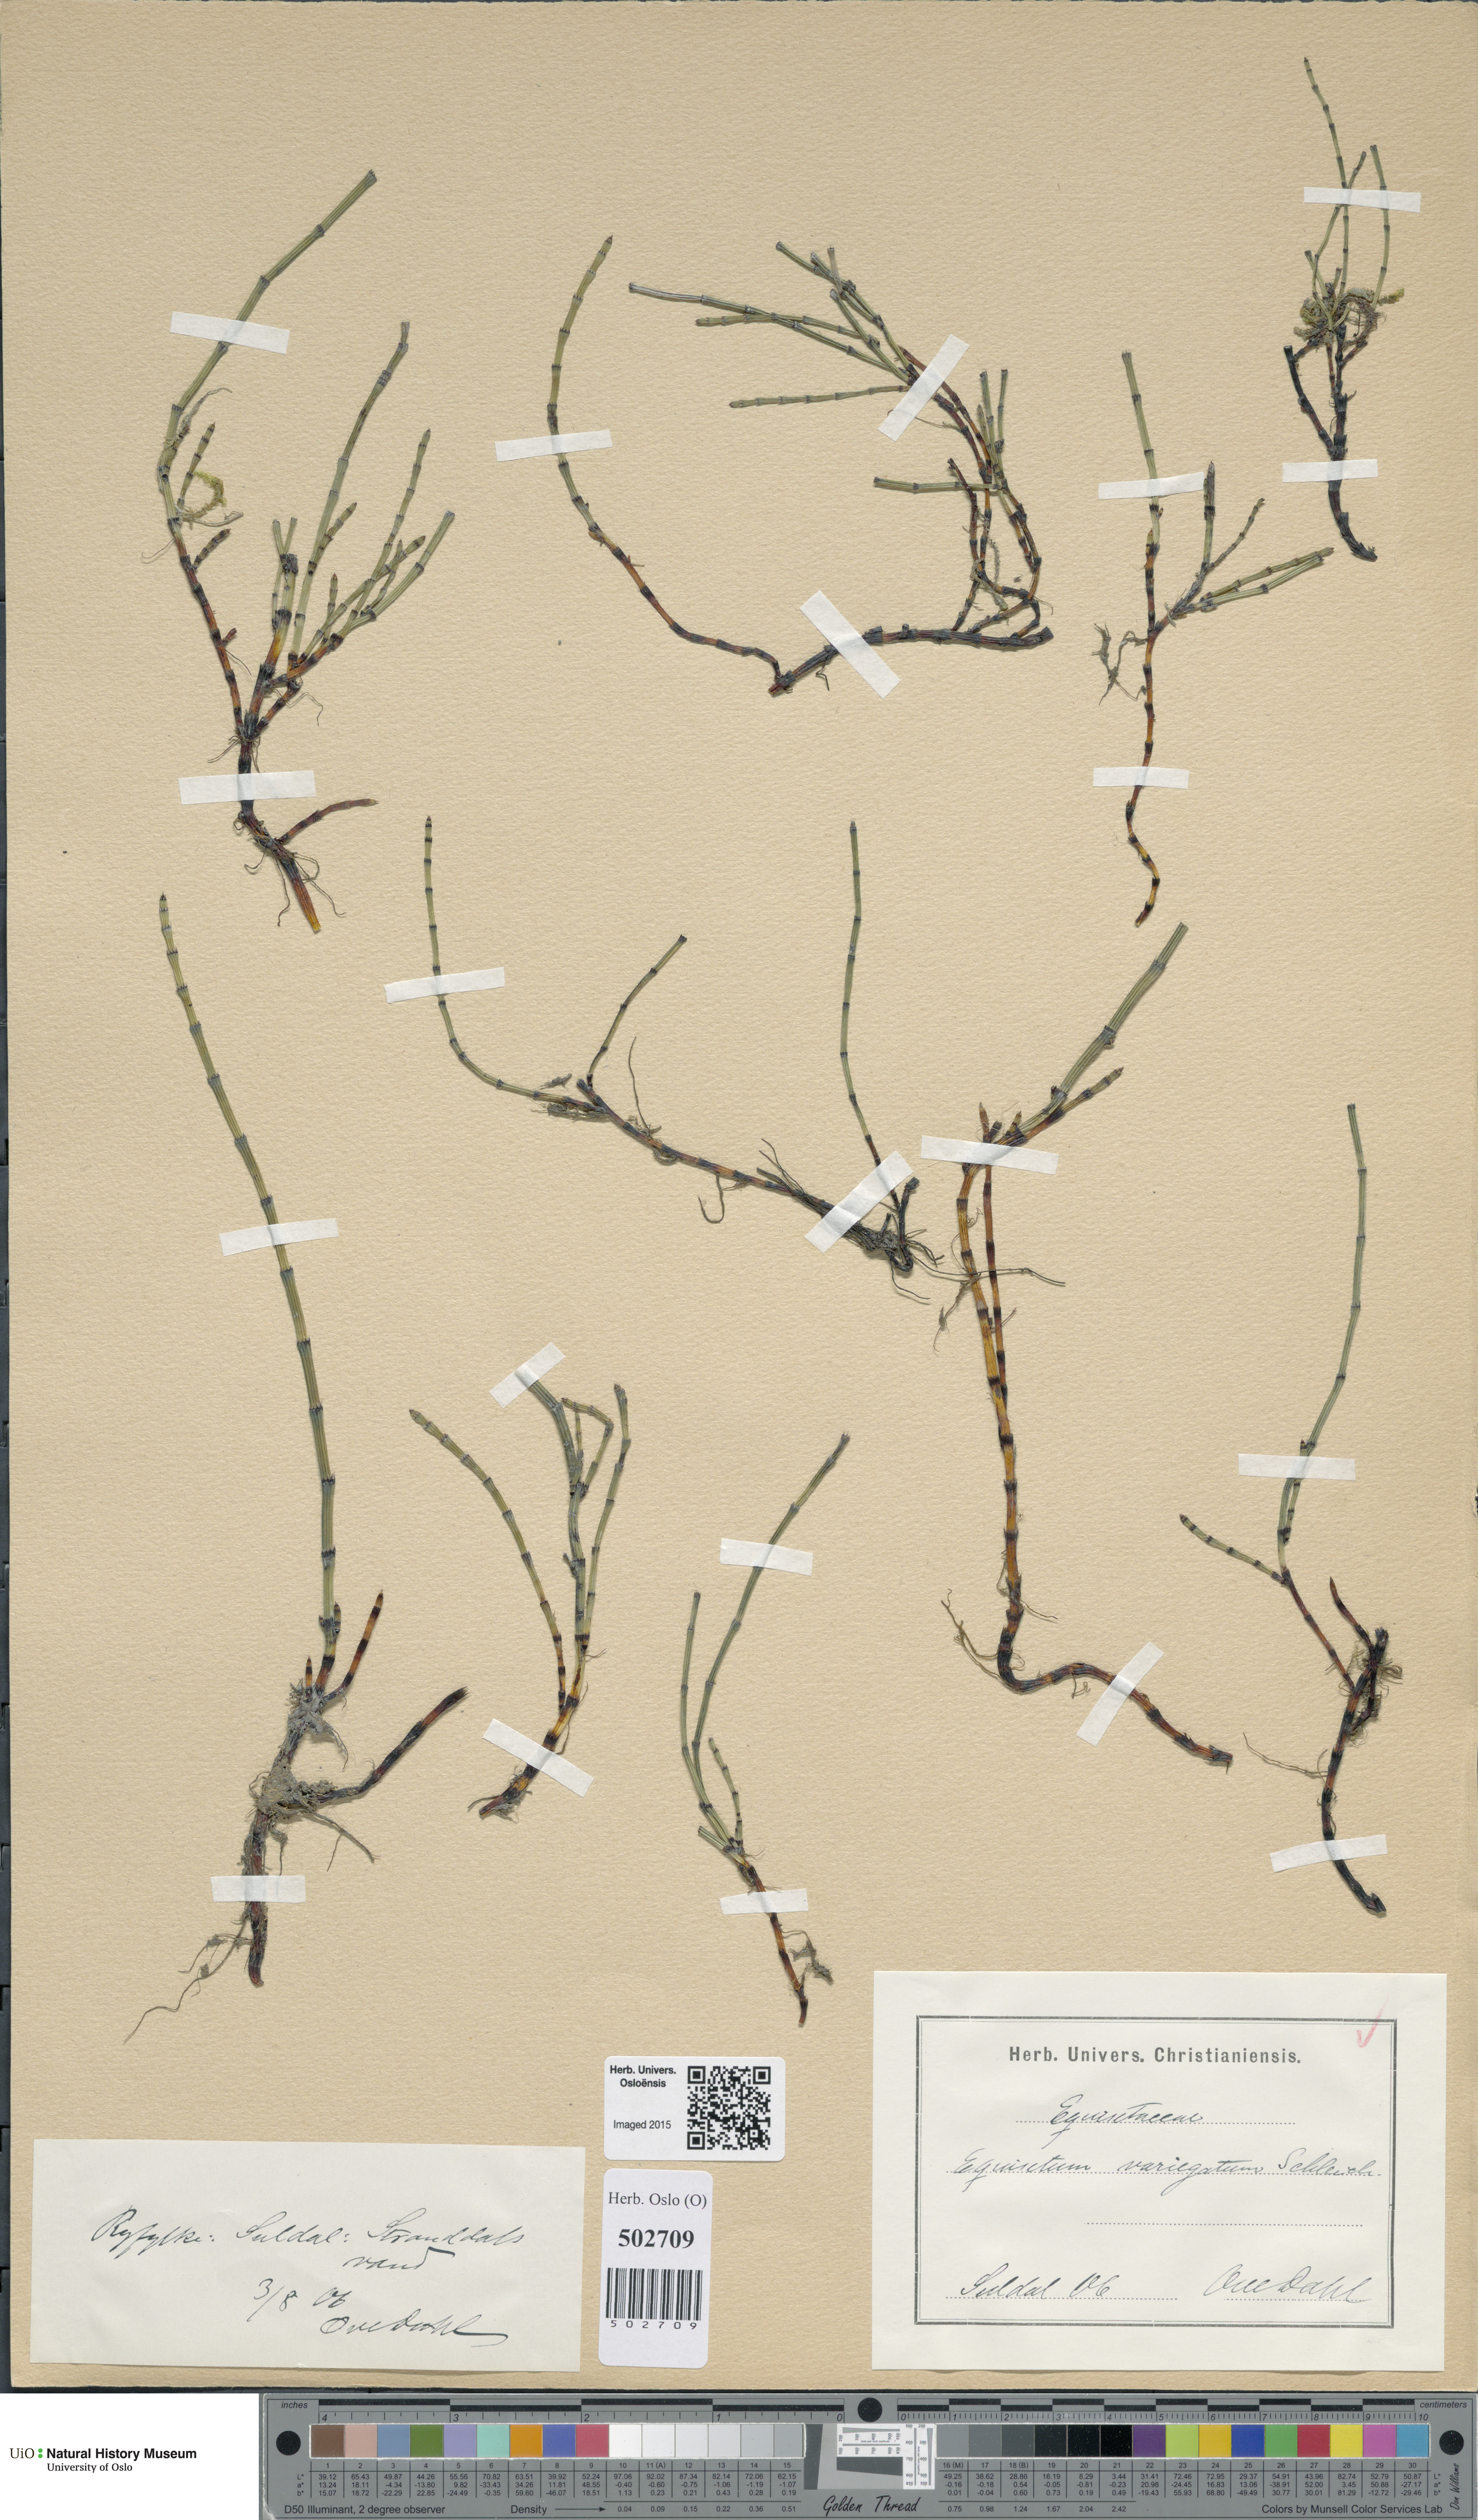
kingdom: Plantae
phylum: Tracheophyta
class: Polypodiopsida
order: Equisetales
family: Equisetaceae
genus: Equisetum
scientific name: Equisetum variegatum
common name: Variegated horsetail
